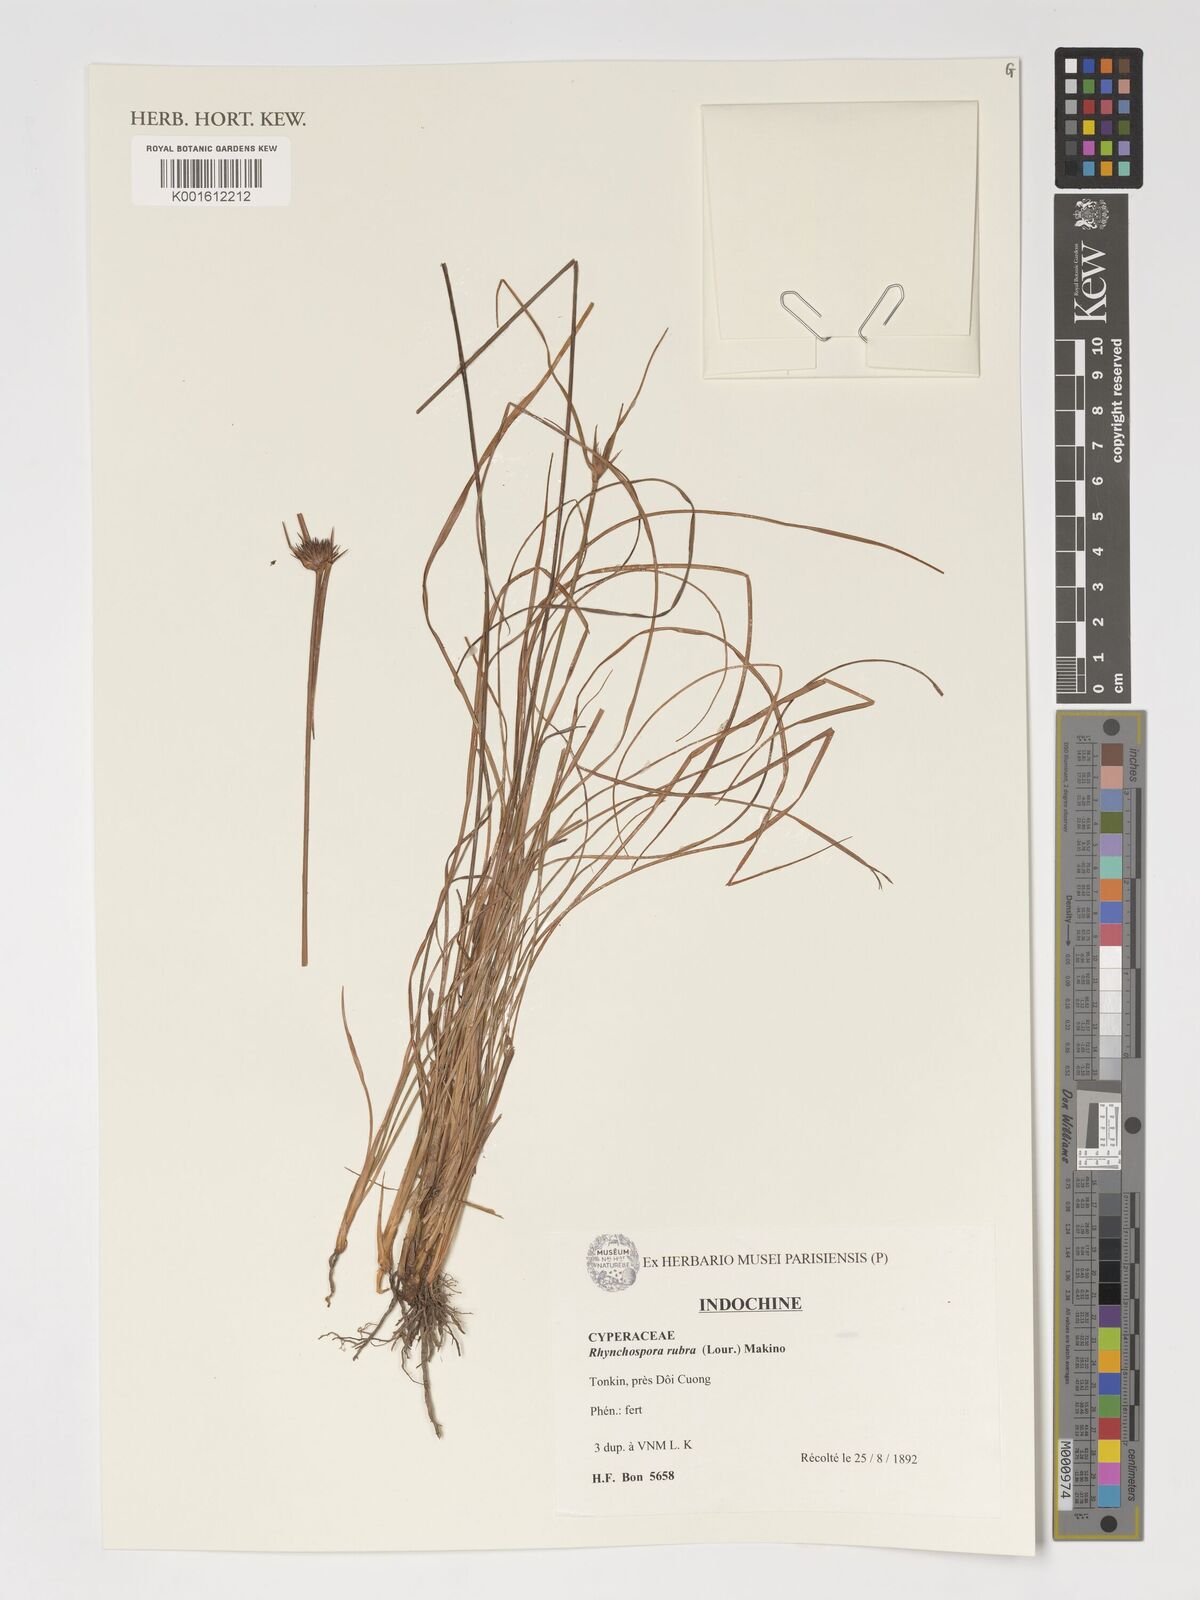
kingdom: Plantae
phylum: Tracheophyta
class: Liliopsida
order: Poales
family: Cyperaceae
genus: Rhynchospora
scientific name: Rhynchospora rubra
